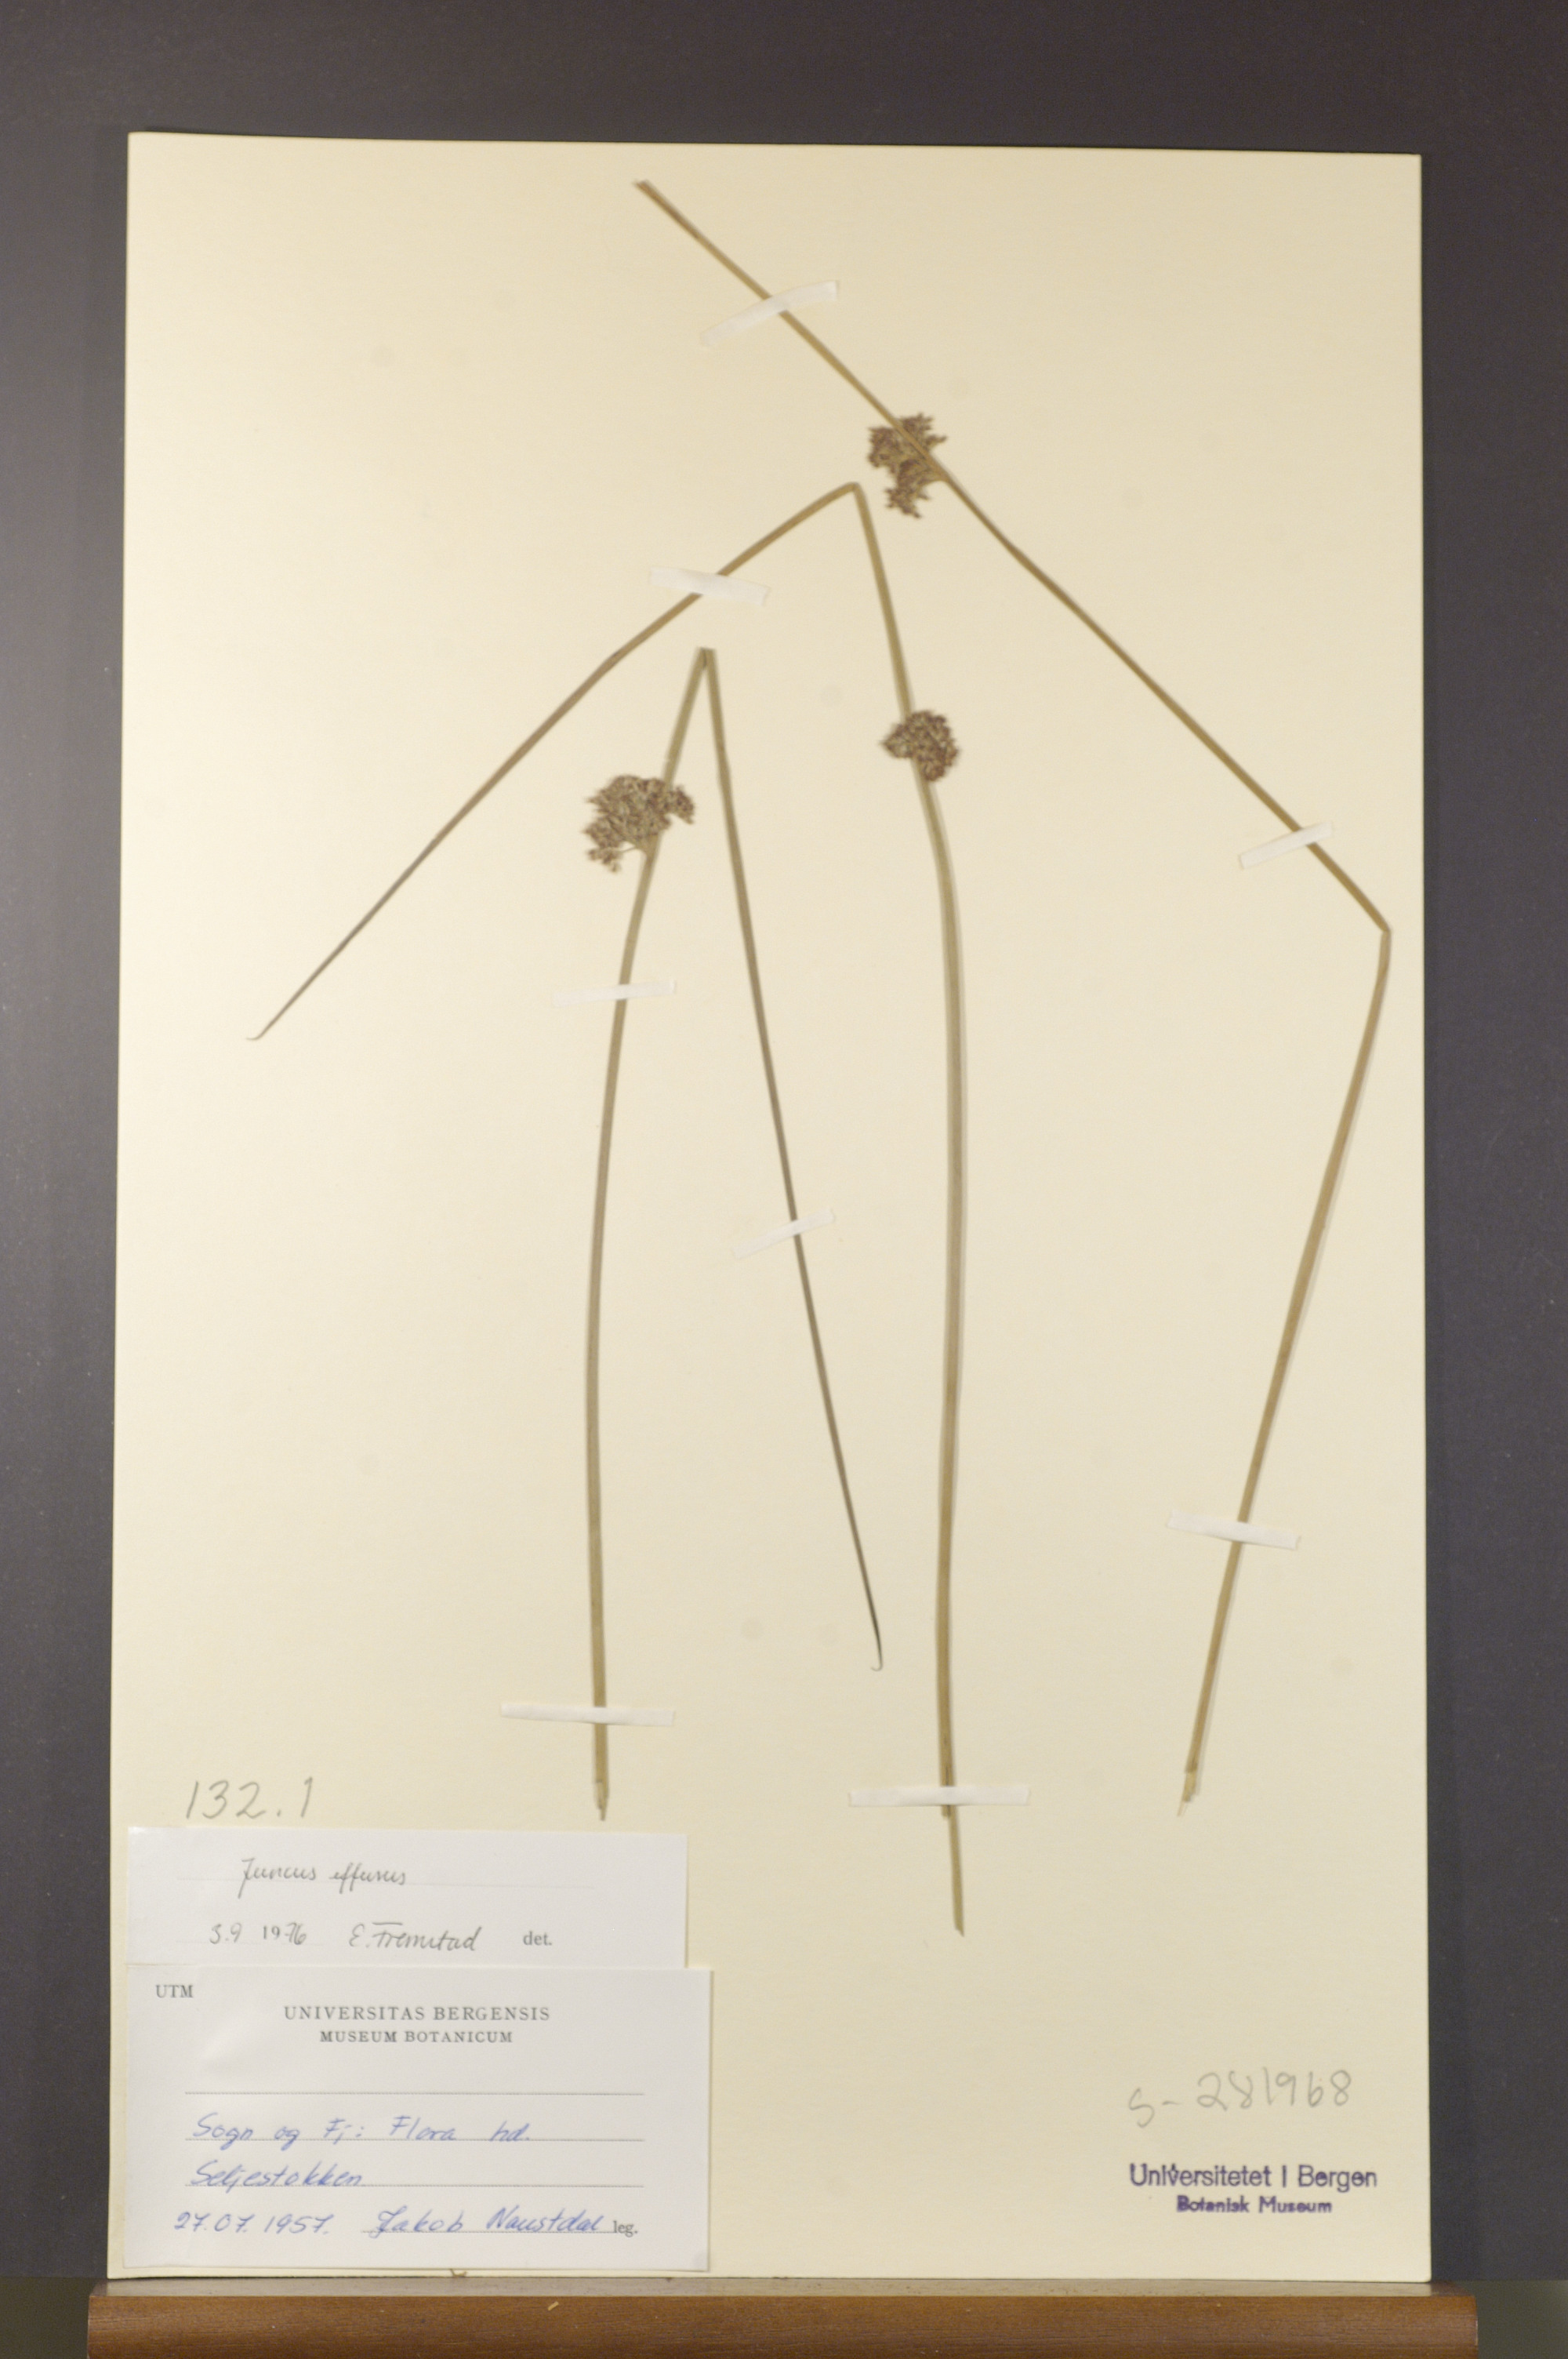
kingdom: Plantae
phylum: Tracheophyta
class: Liliopsida
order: Poales
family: Juncaceae
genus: Juncus
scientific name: Juncus effusus
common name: Soft rush
